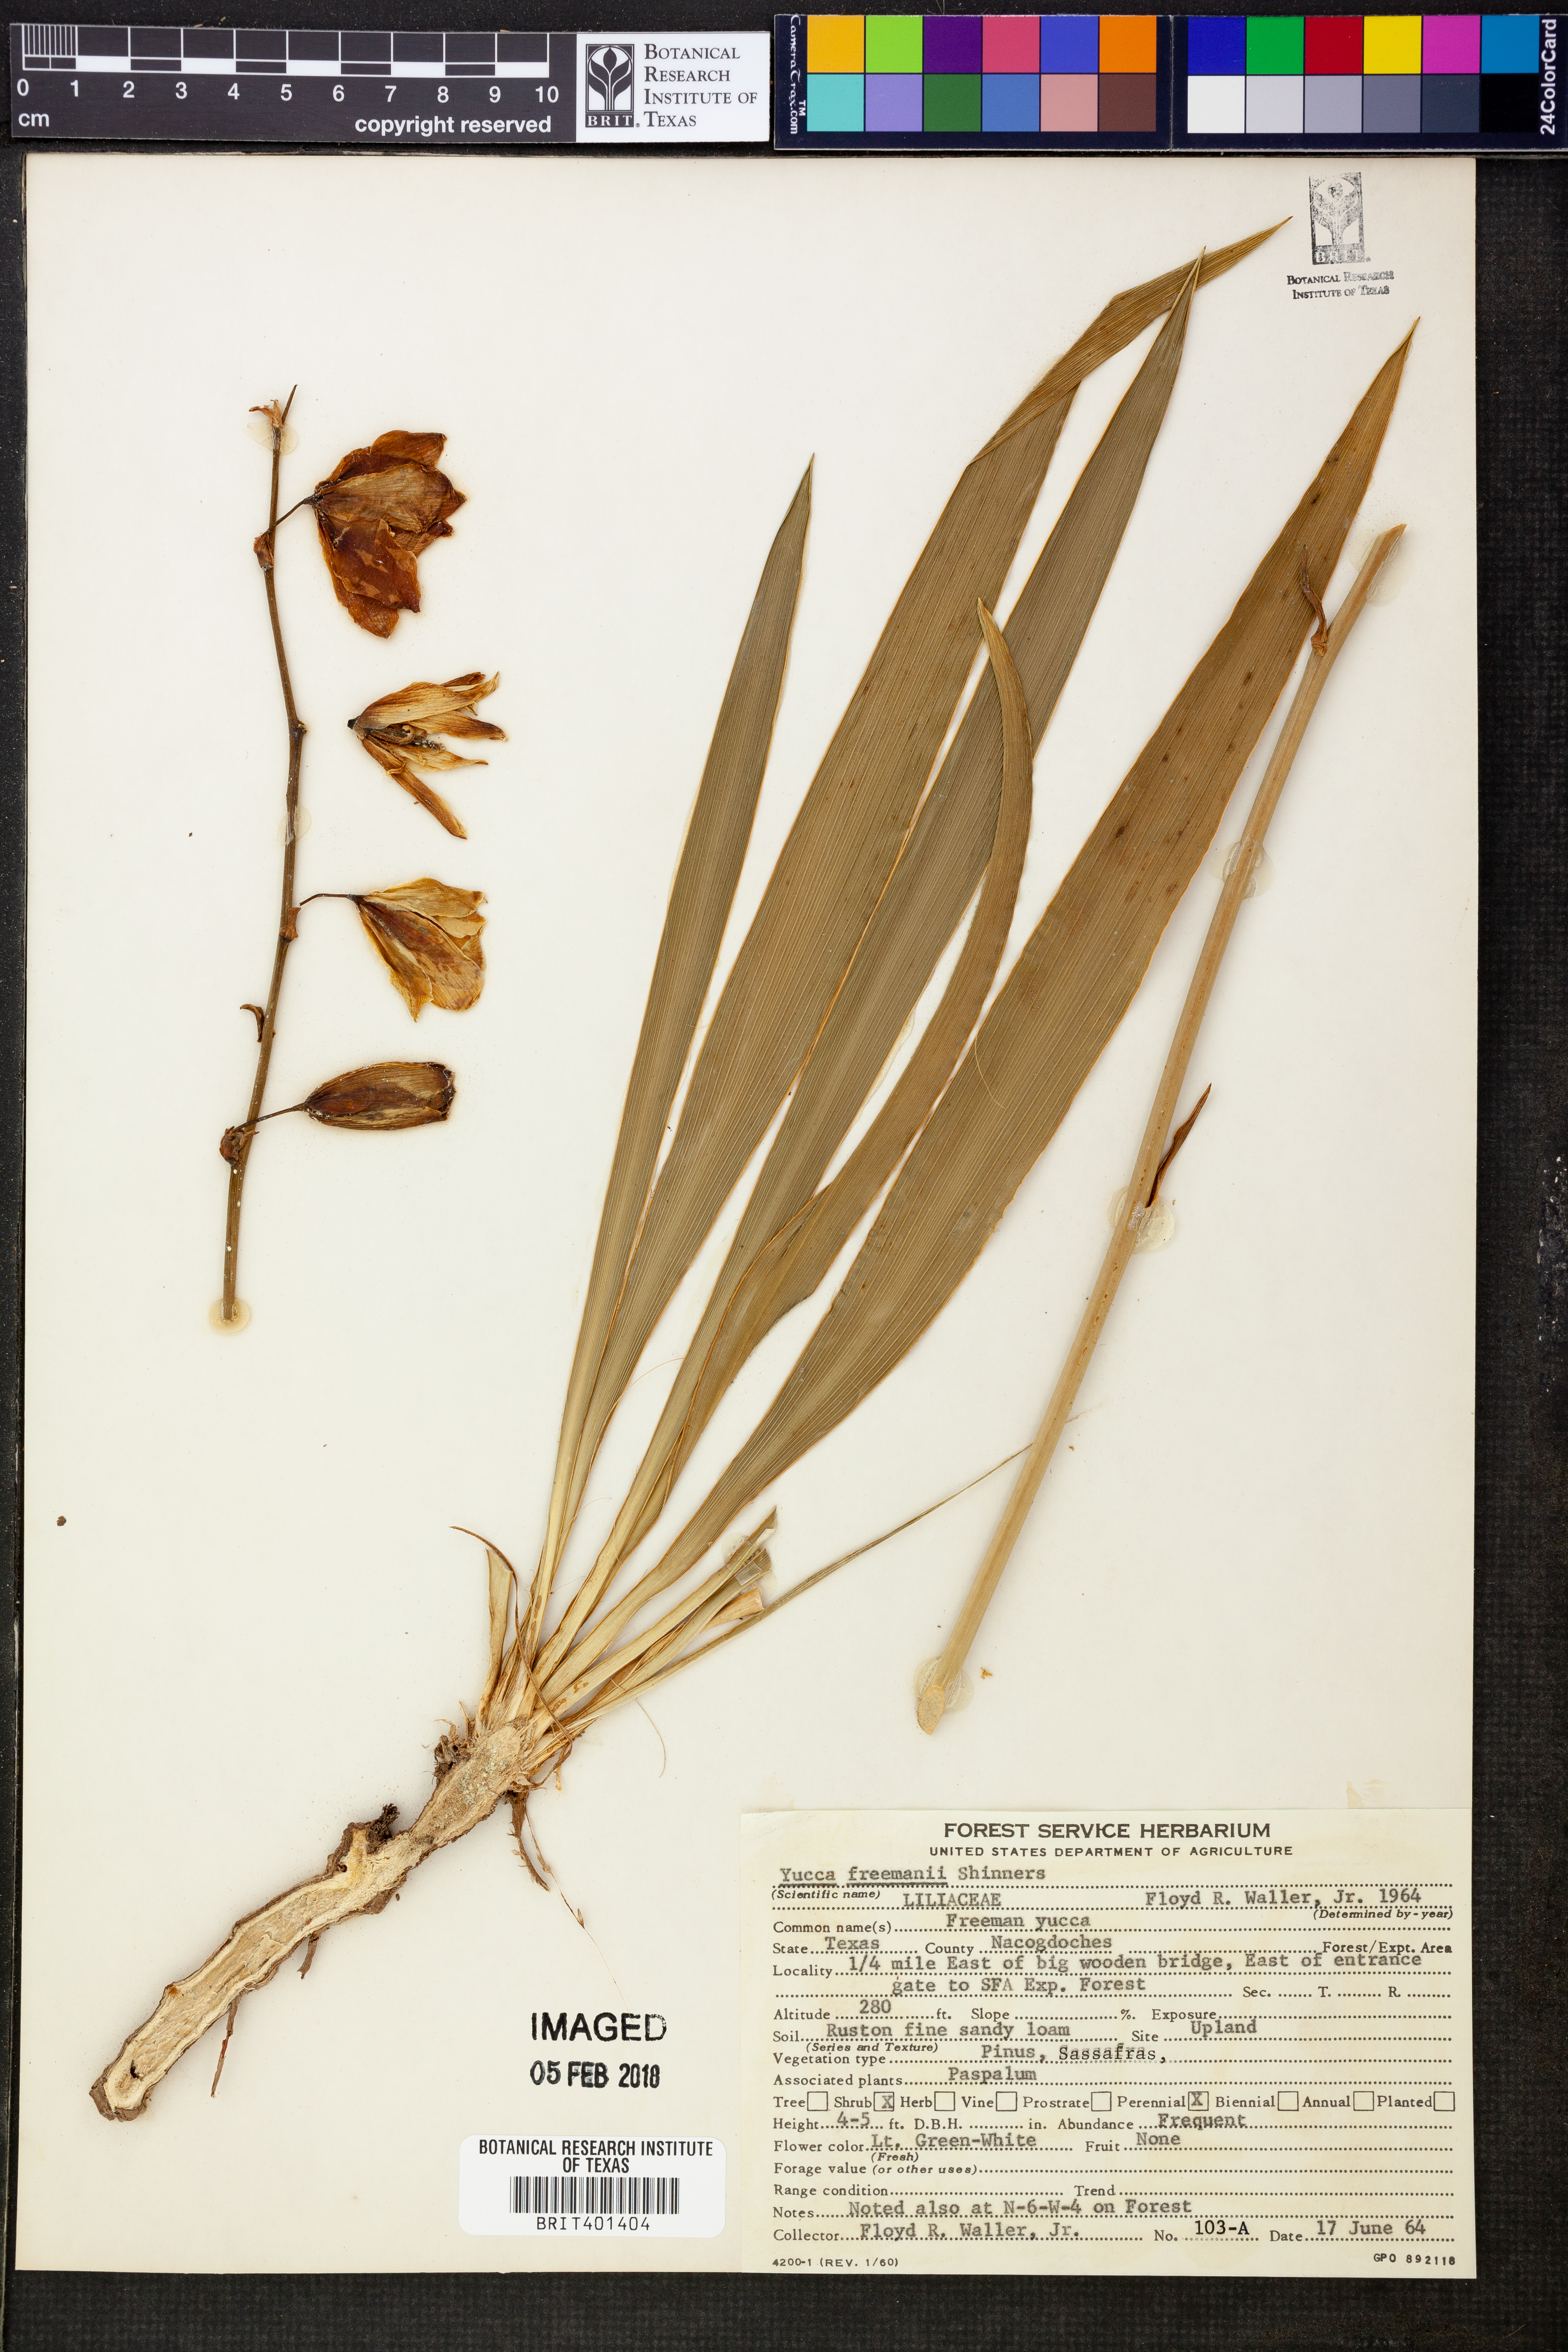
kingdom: Plantae
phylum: Tracheophyta
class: Liliopsida
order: Asparagales
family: Asparagaceae
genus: Yucca
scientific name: Yucca flaccida
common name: Adam's-needle
